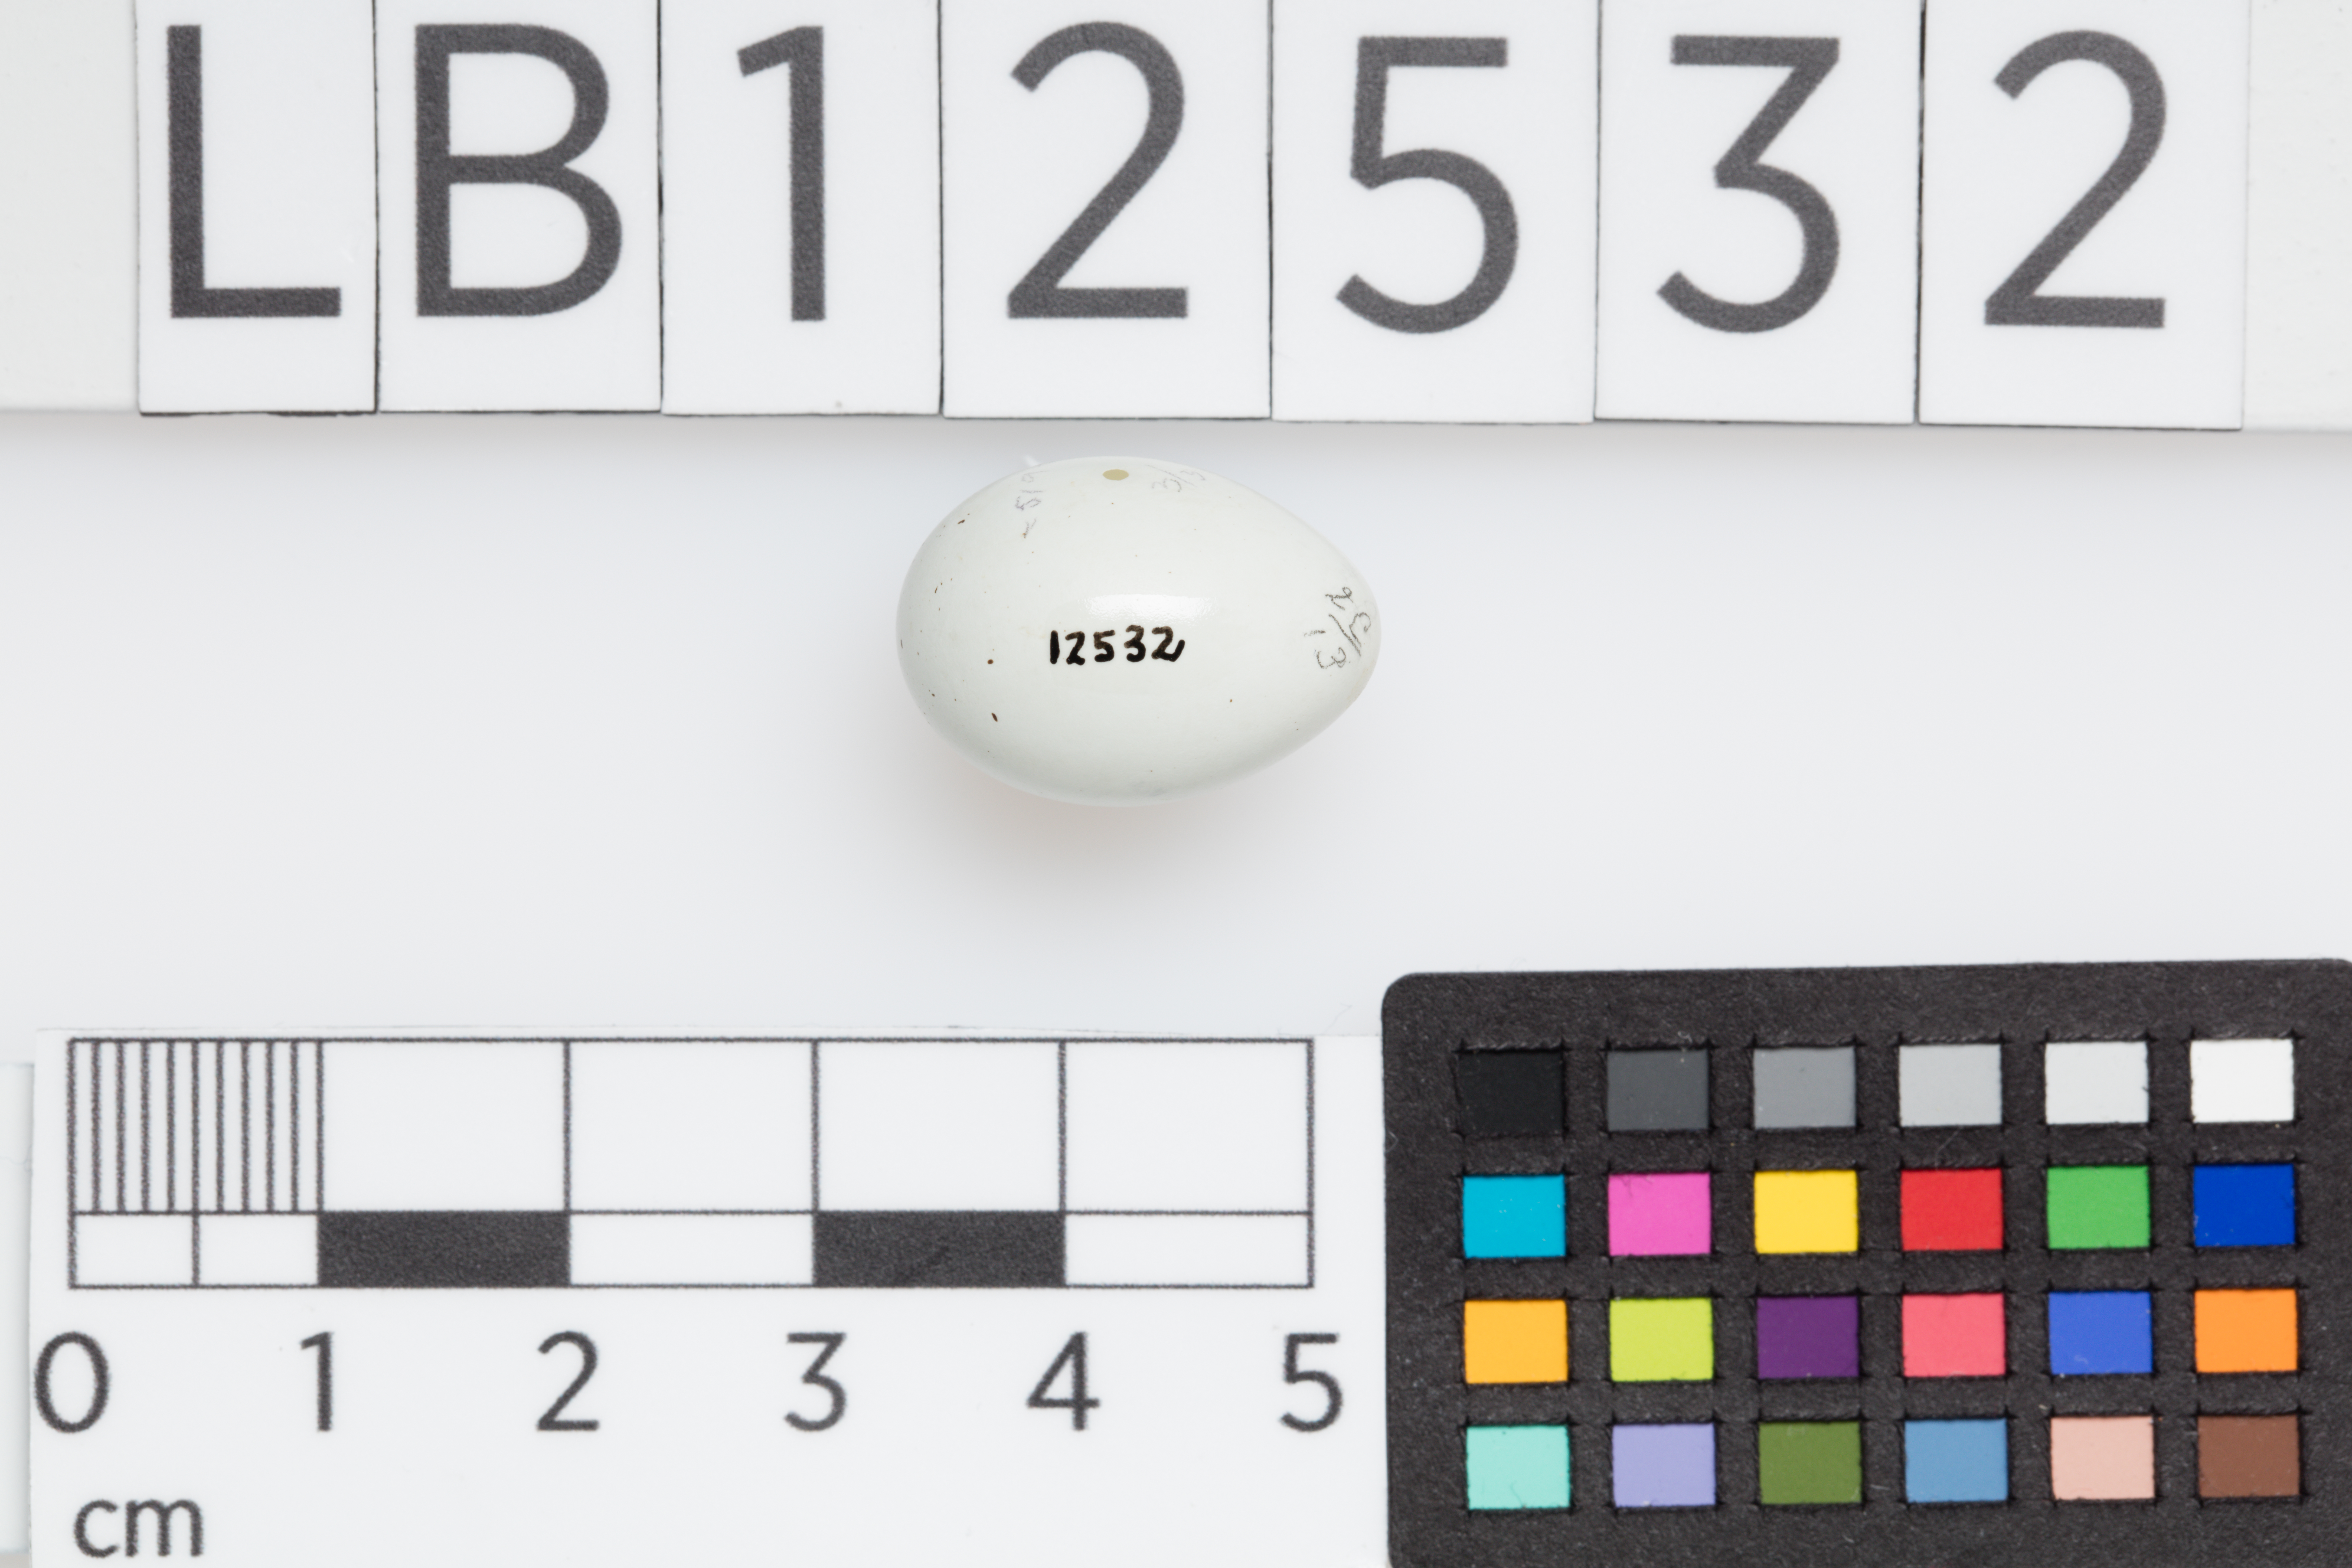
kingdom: Animalia
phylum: Chordata
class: Aves
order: Passeriformes
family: Fringillidae
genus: Haemorhous
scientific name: Haemorhous mexicanus
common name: House finch
